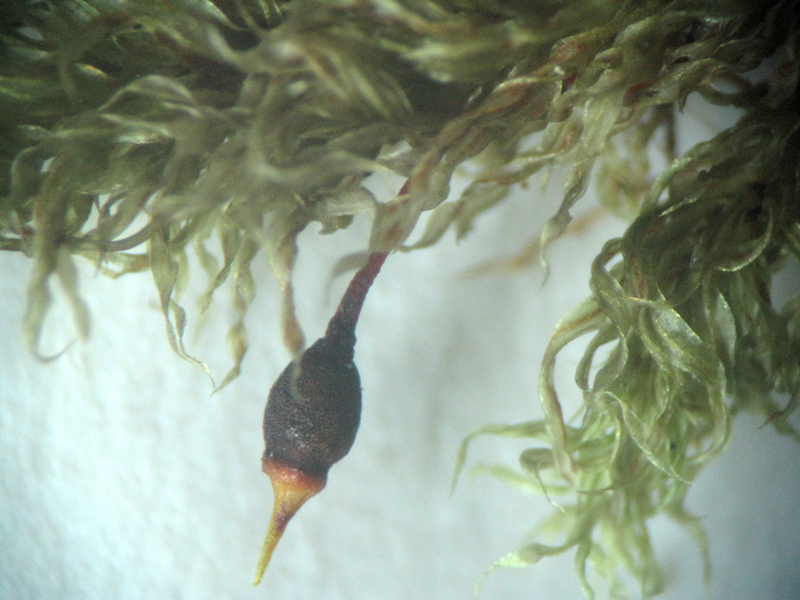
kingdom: Plantae
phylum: Bryophyta
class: Bryopsida
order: Hookeriales
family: Daltoniaceae
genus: Daltonia
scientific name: Daltonia splachnoides
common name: Daltonia moss
